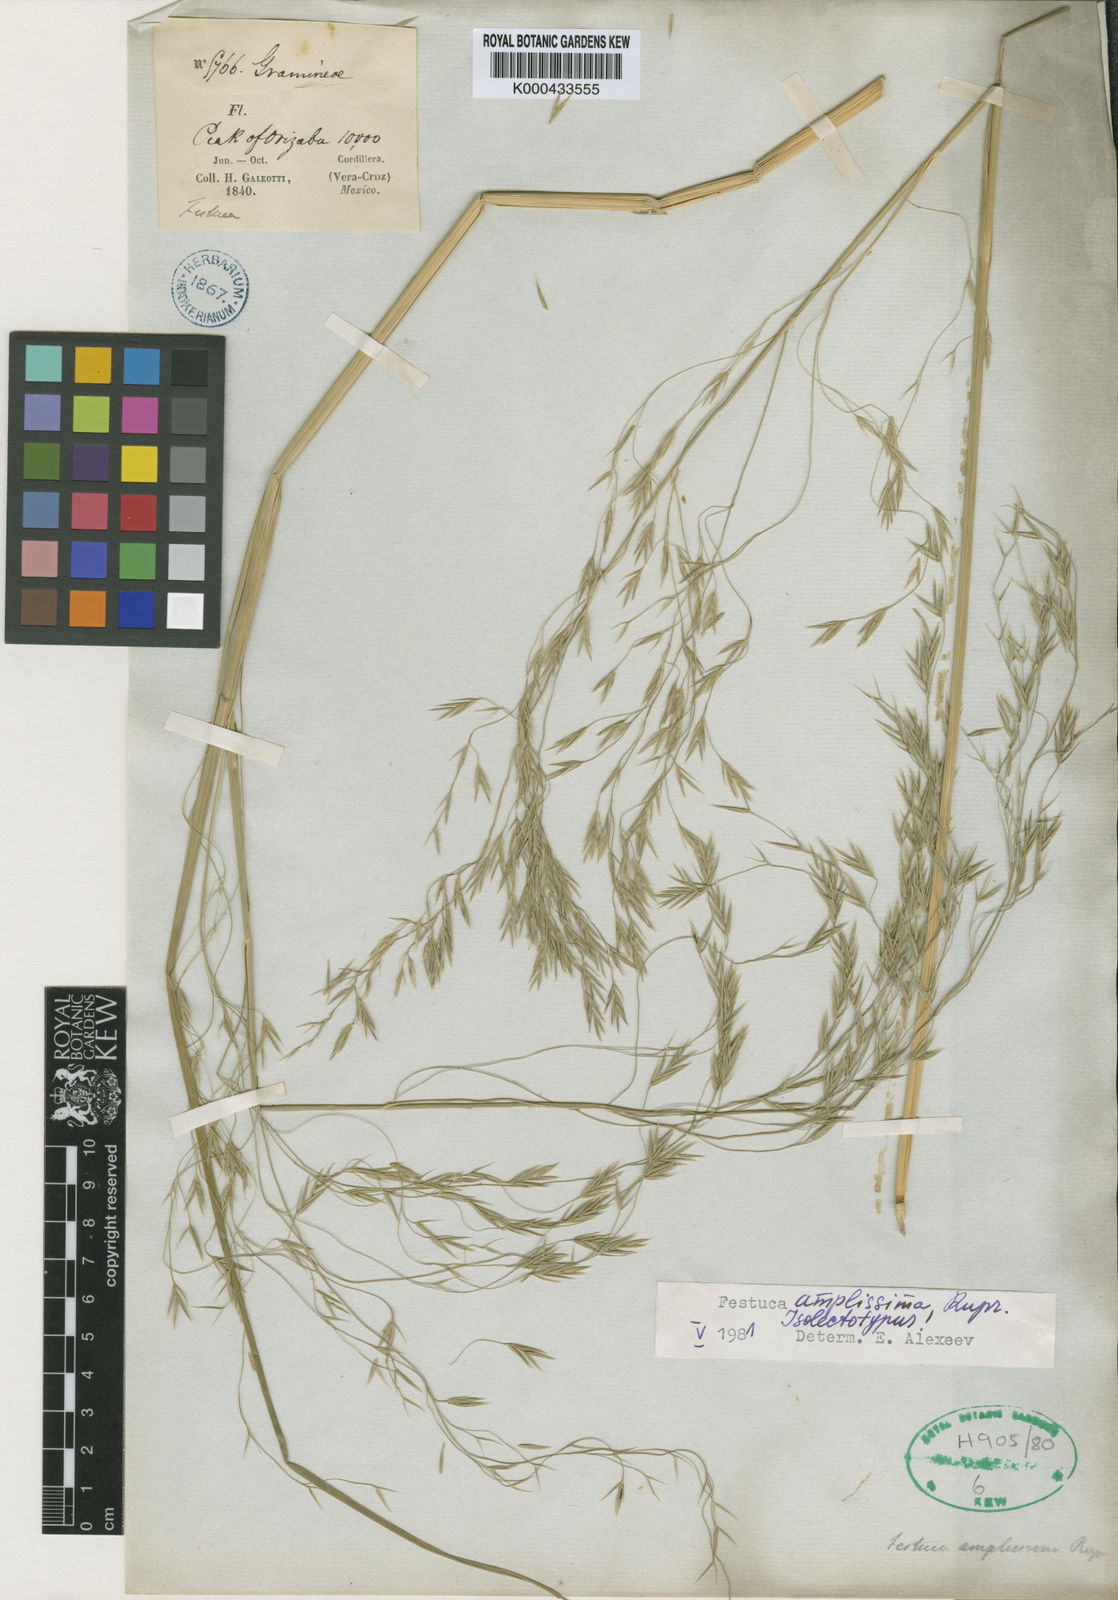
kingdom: Plantae
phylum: Tracheophyta
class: Liliopsida
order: Poales
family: Poaceae
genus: Festuca
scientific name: Festuca
